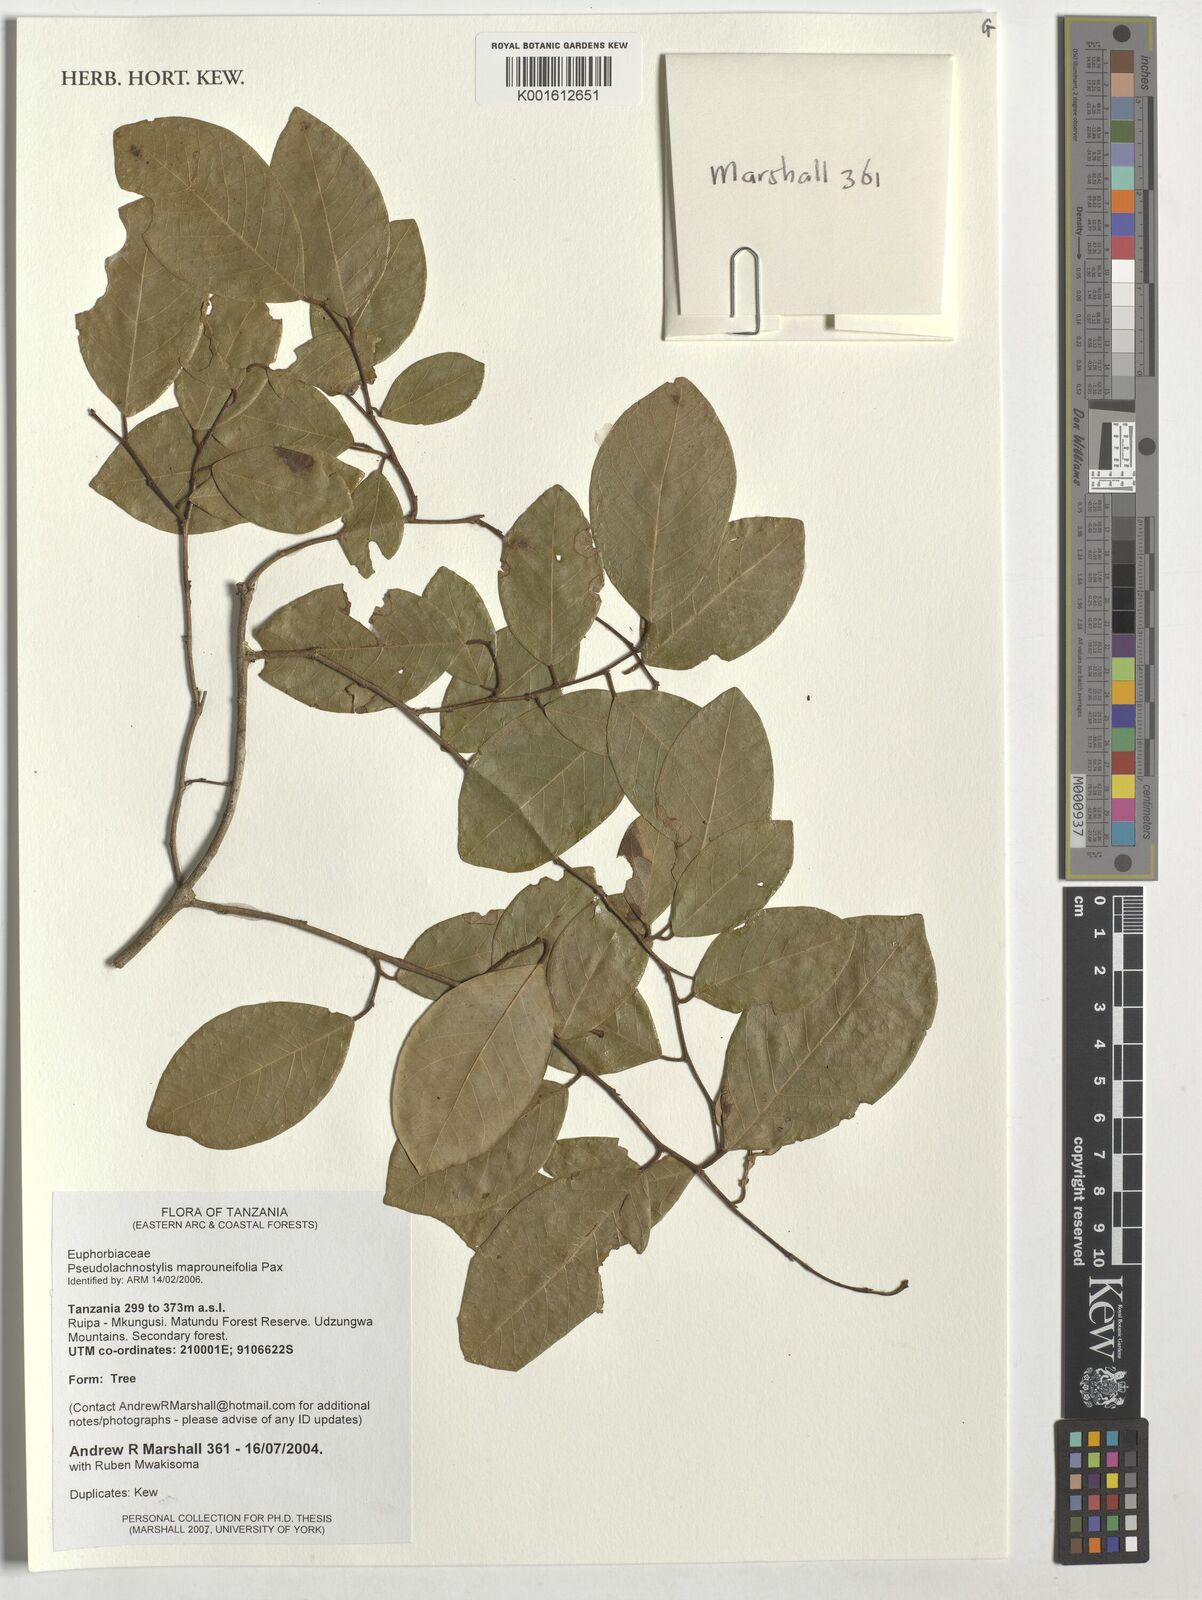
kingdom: Plantae
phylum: Tracheophyta
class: Magnoliopsida
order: Malpighiales
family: Phyllanthaceae
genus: Pseudolachnostylis
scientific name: Pseudolachnostylis maprouneifolia
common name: Kudu berry
